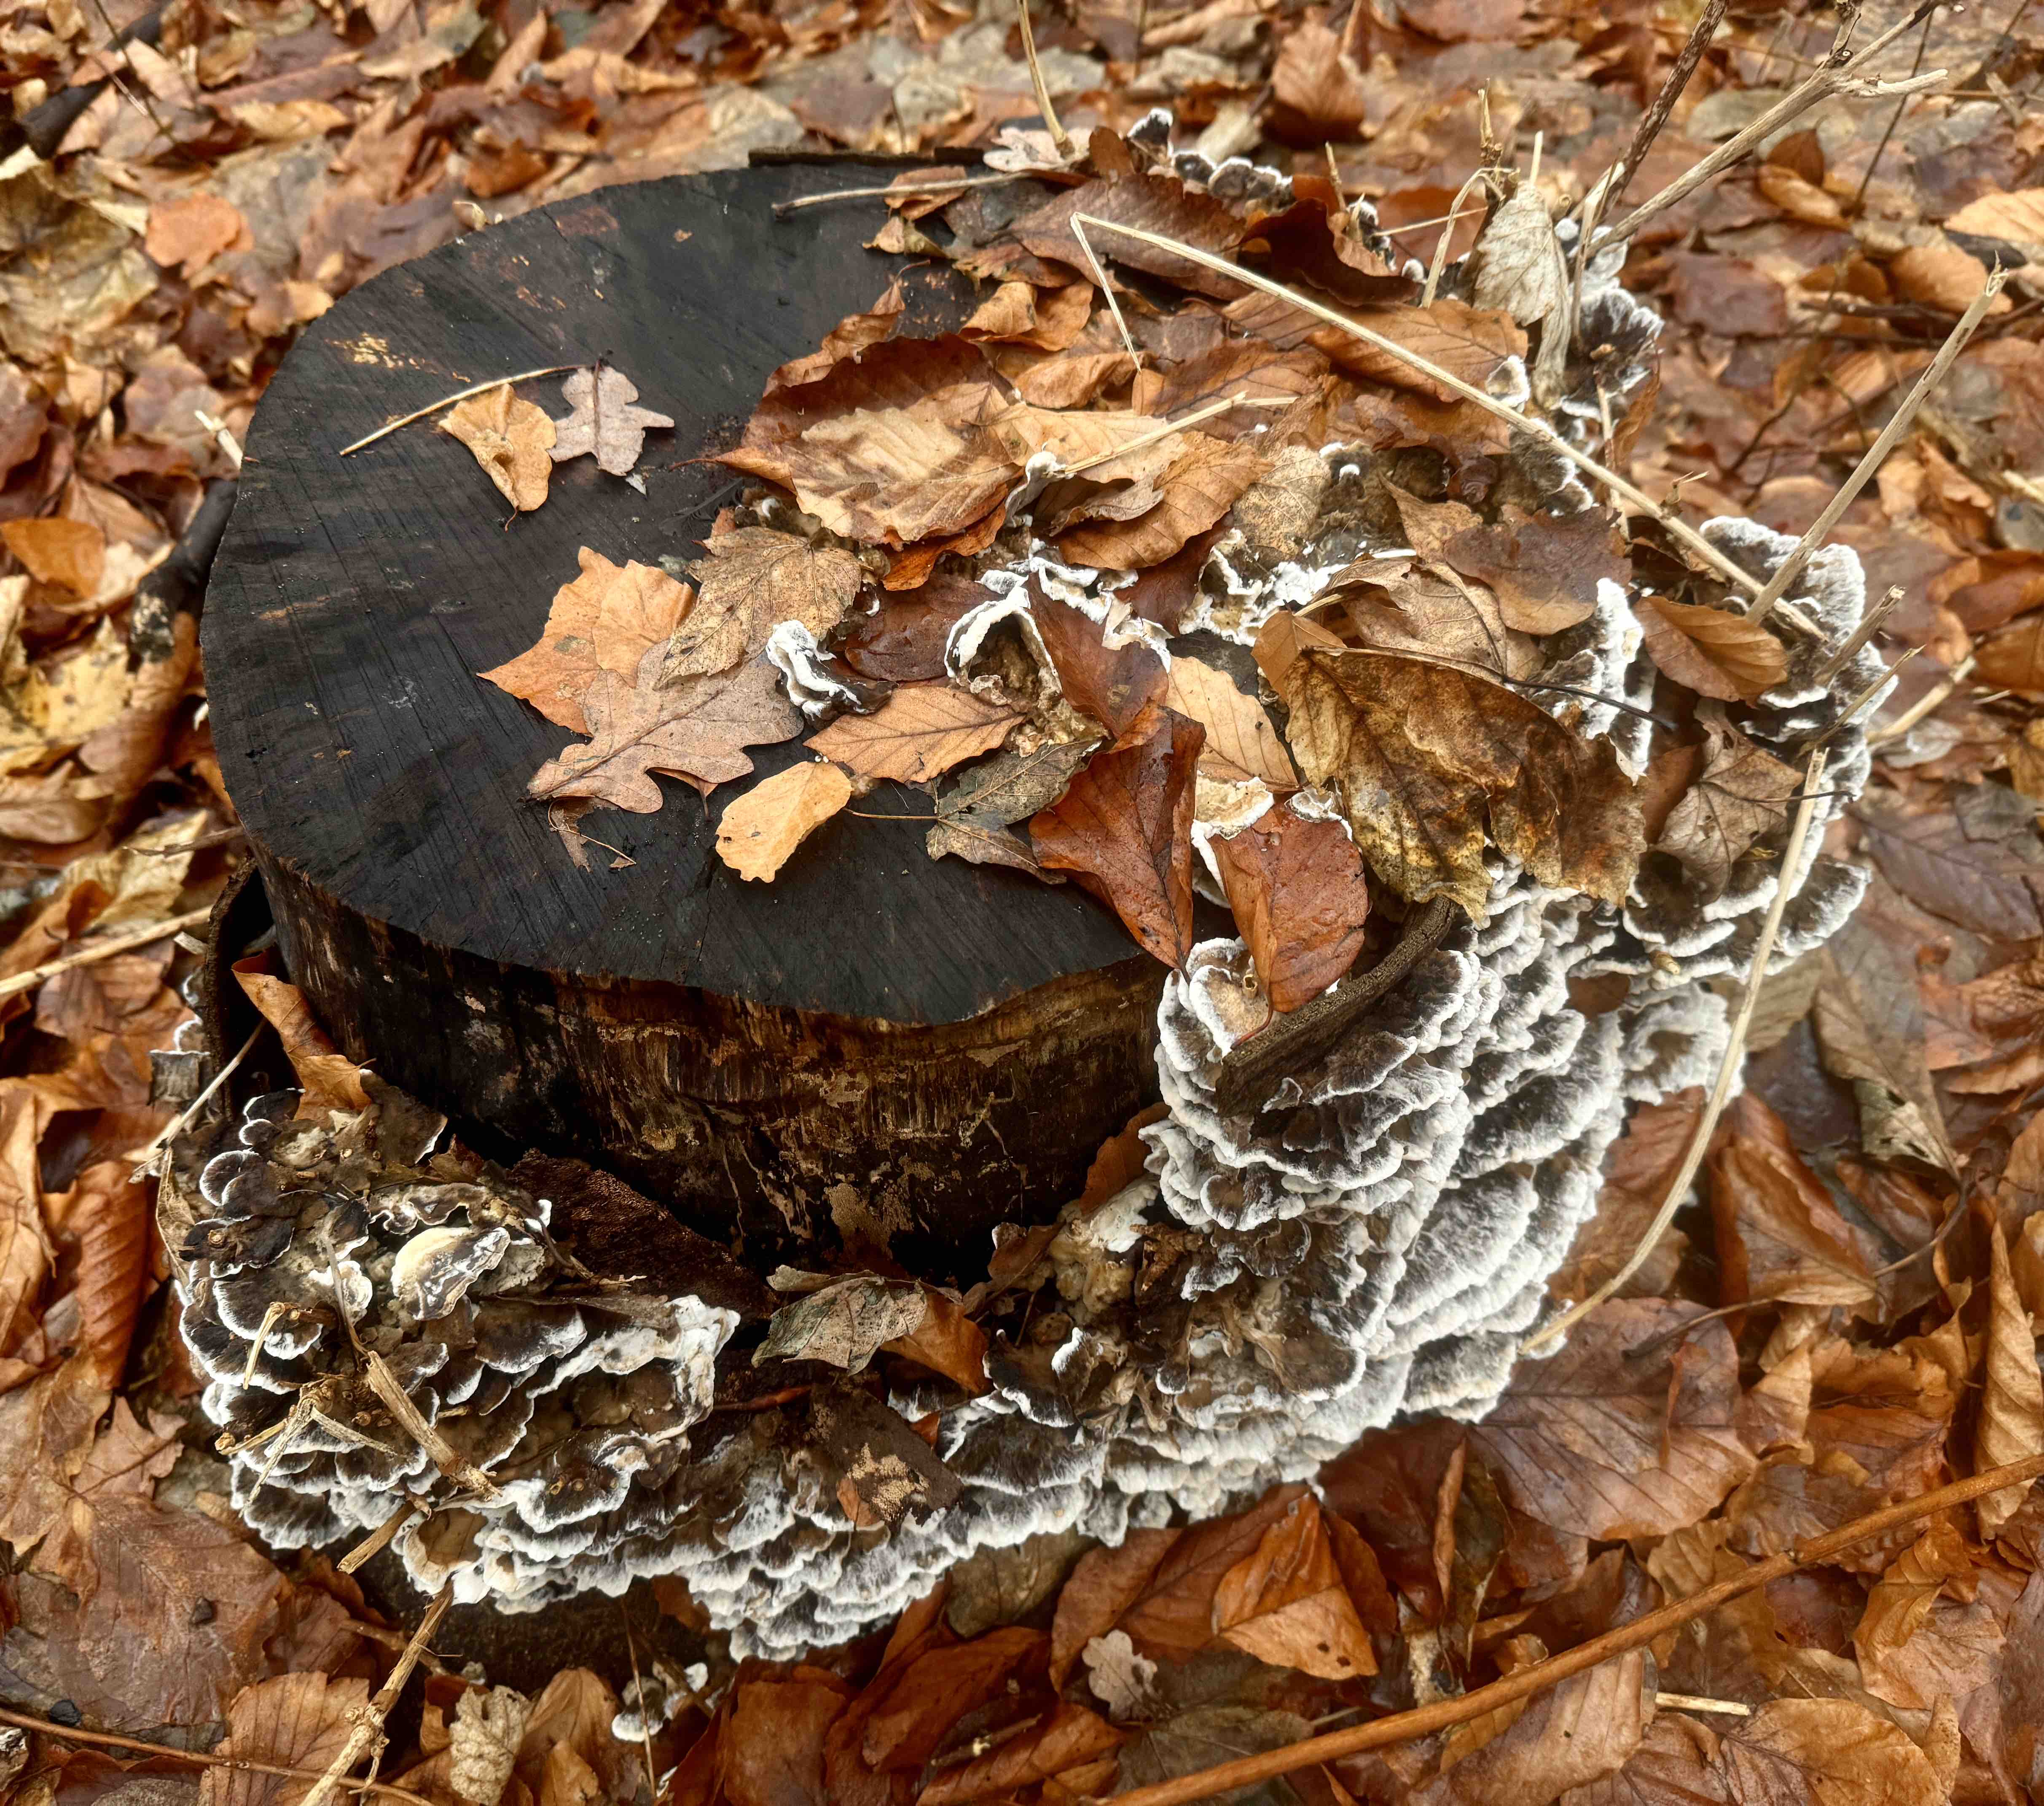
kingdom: Fungi
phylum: Basidiomycota
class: Agaricomycetes
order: Polyporales
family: Phanerochaetaceae
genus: Bjerkandera
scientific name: Bjerkandera adusta
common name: sveden sodporesvamp
